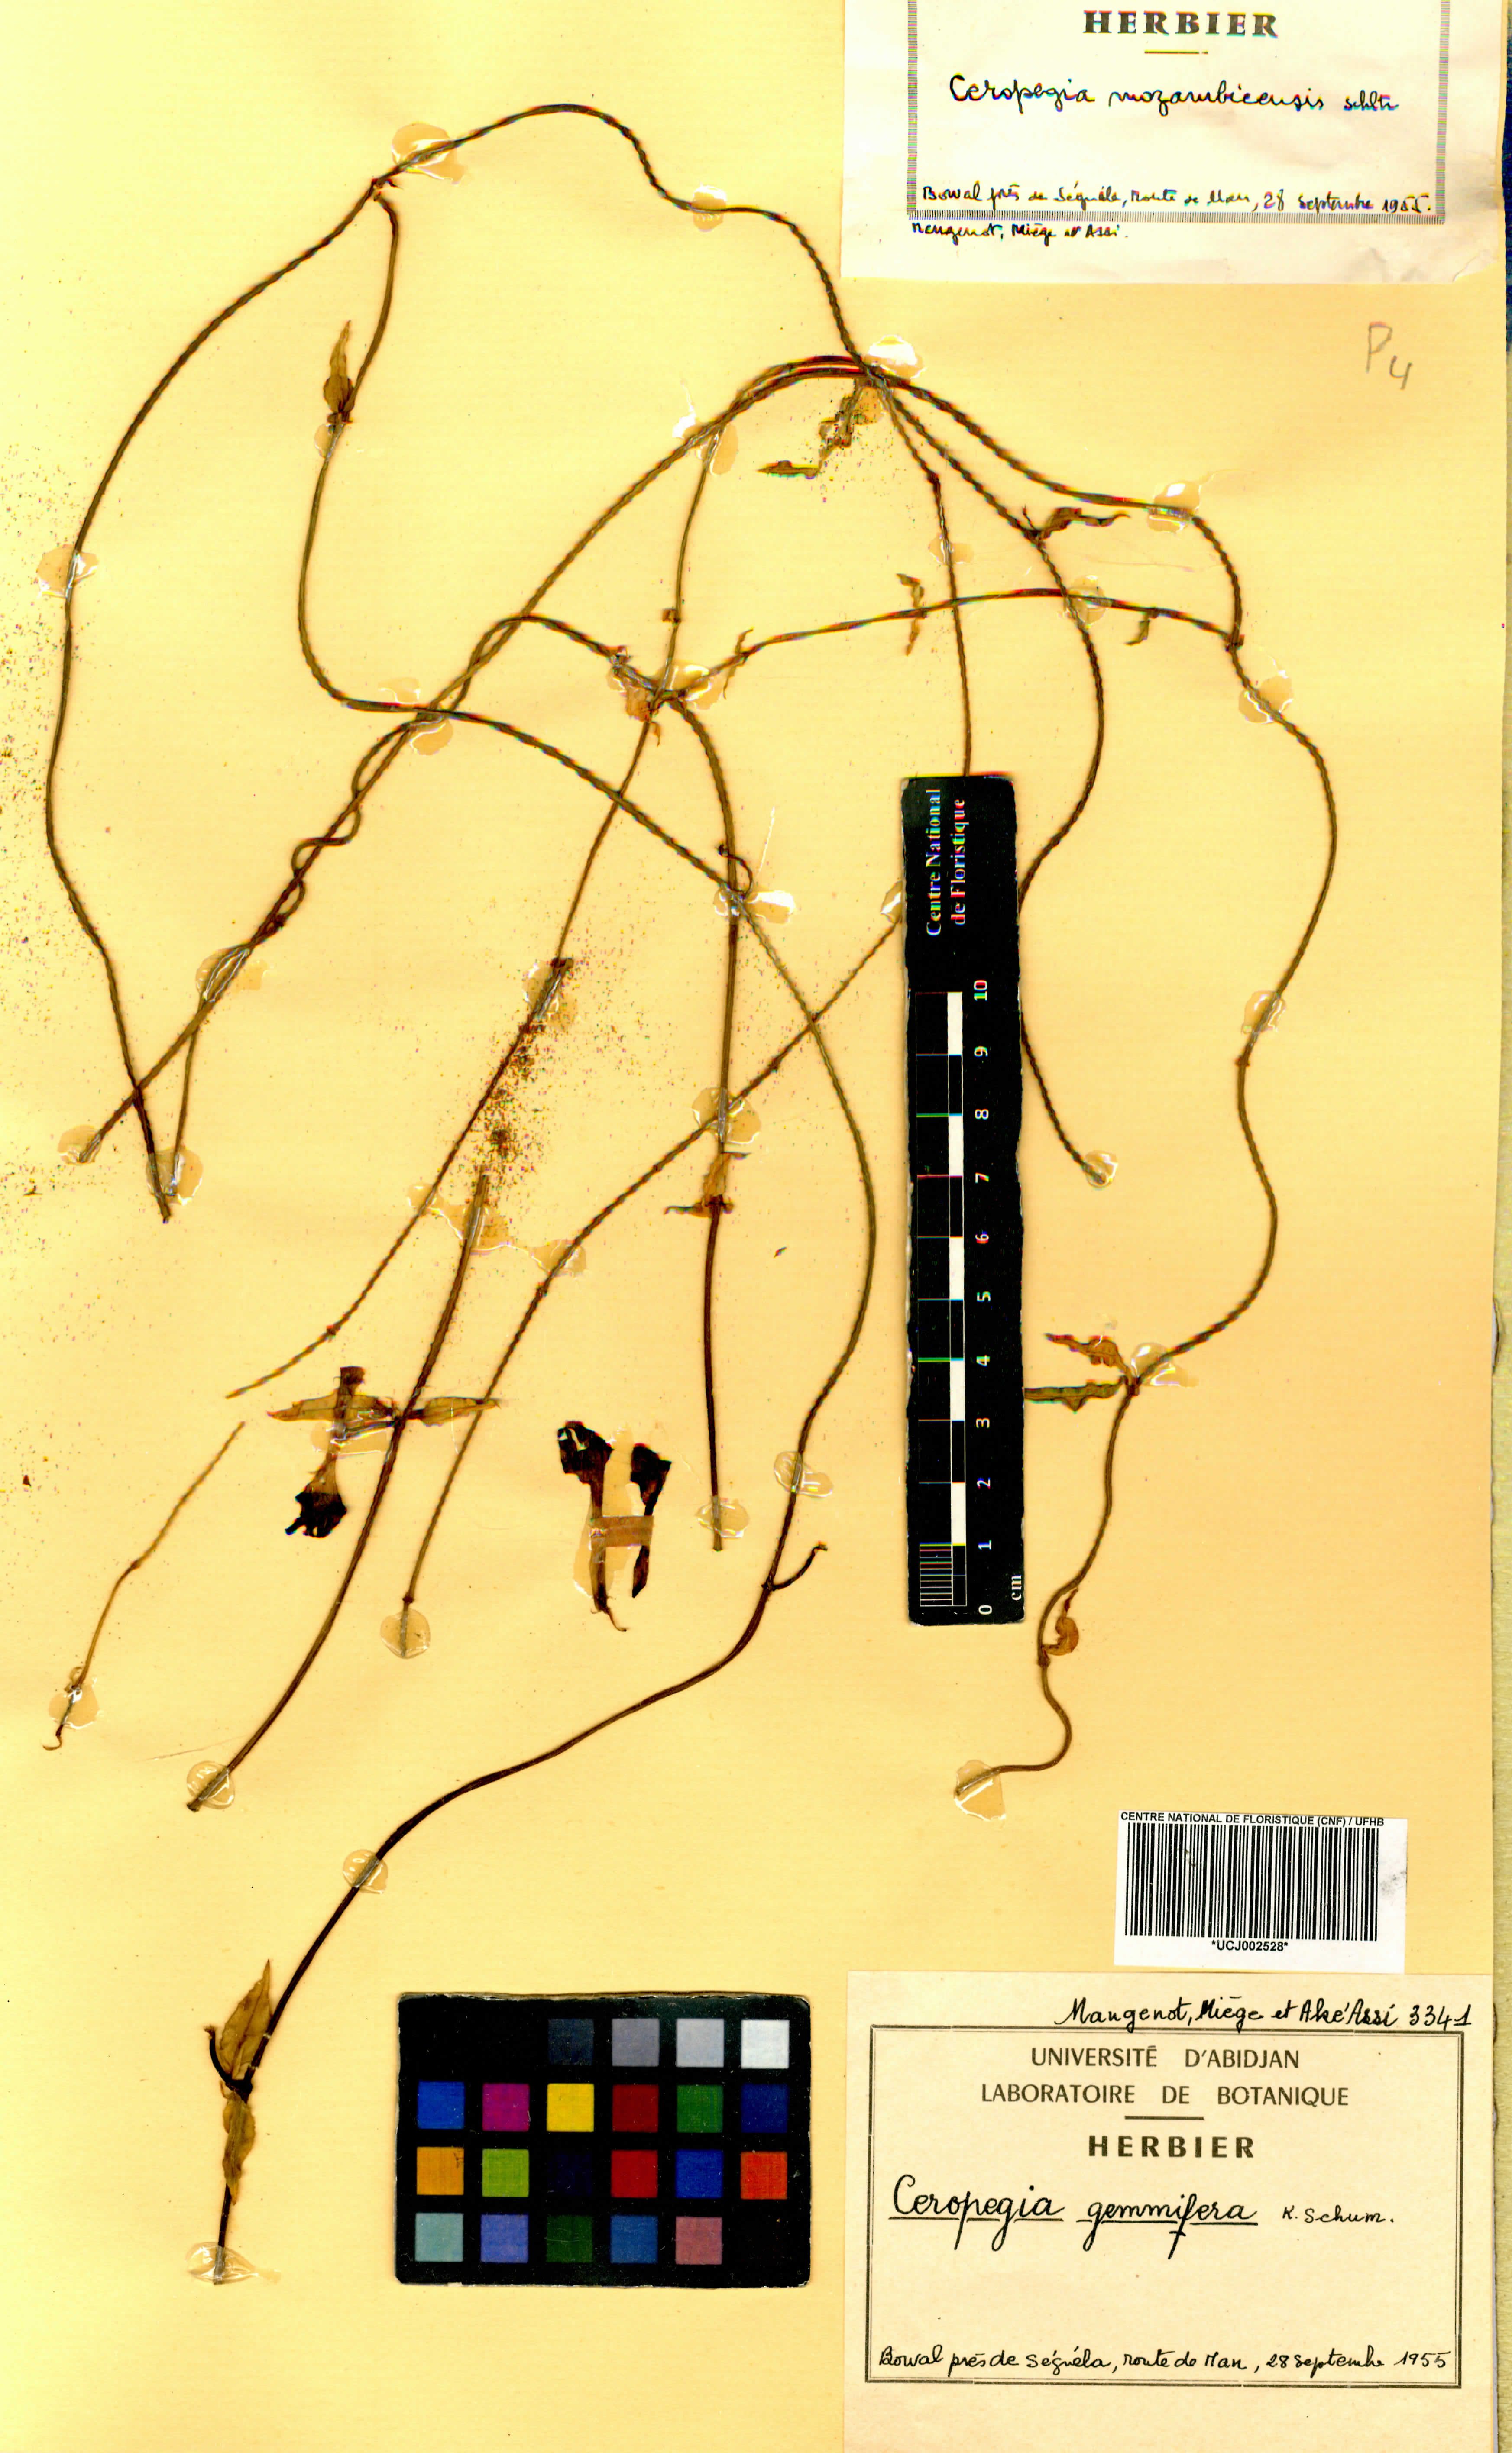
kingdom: Plantae
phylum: Tracheophyta
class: Magnoliopsida
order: Gentianales
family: Apocynaceae
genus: Ceropegia
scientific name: Ceropegia nilotica
